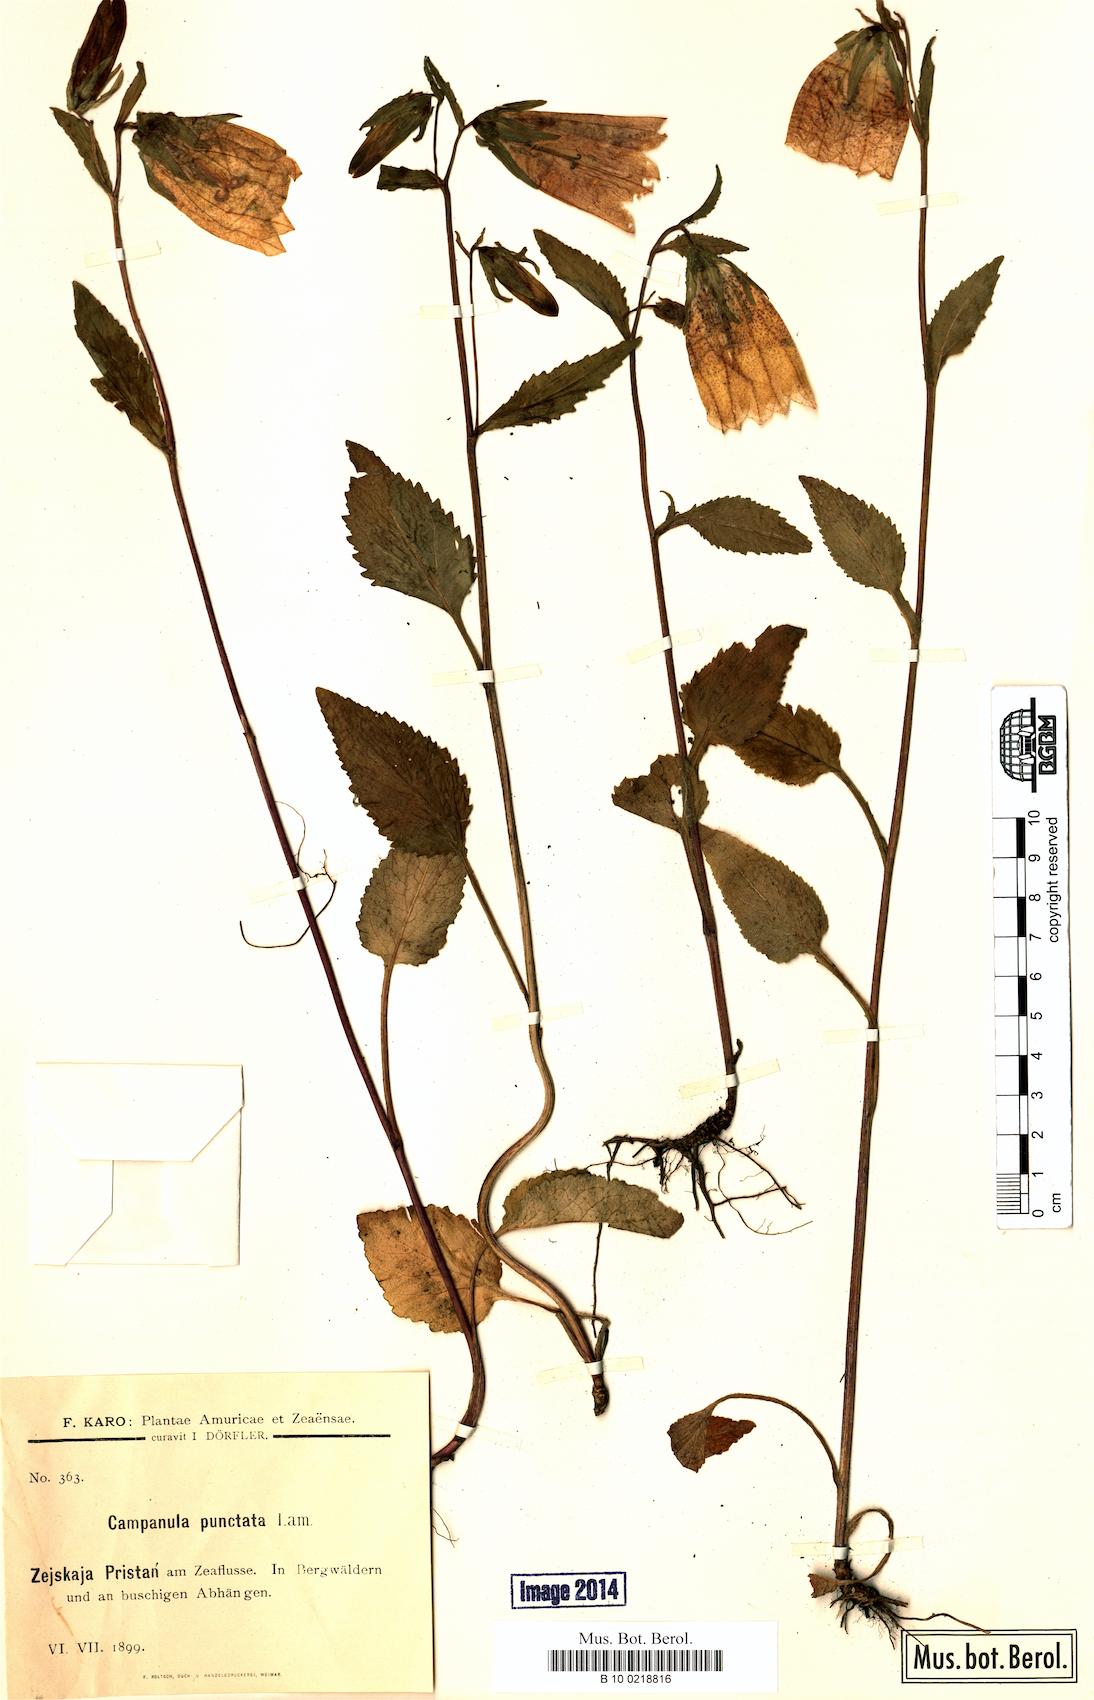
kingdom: Plantae
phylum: Tracheophyta
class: Magnoliopsida
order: Asterales
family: Campanulaceae
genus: Campanula
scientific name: Campanula punctata
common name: Spotted bellflower
